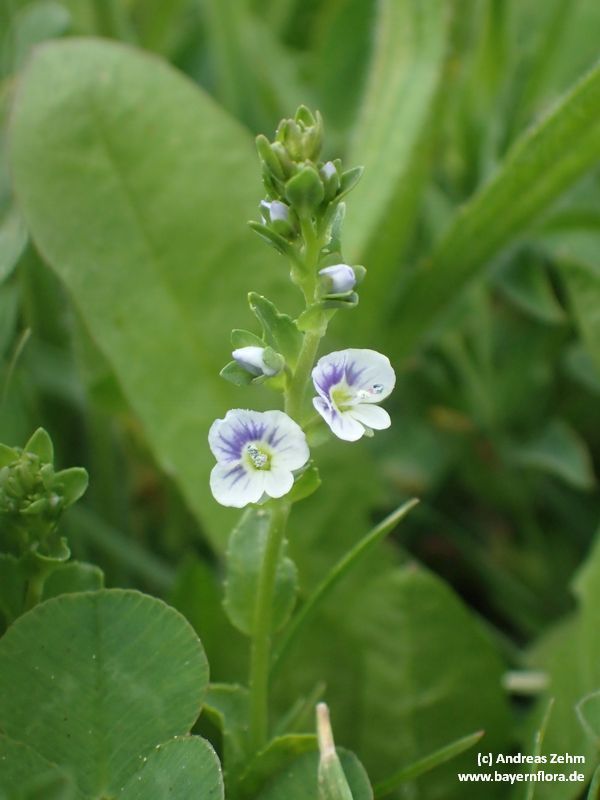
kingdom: Plantae
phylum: Tracheophyta
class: Magnoliopsida
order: Lamiales
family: Plantaginaceae
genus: Veronica
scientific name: Veronica serpyllifolia
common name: Thyme-leaved speedwell
